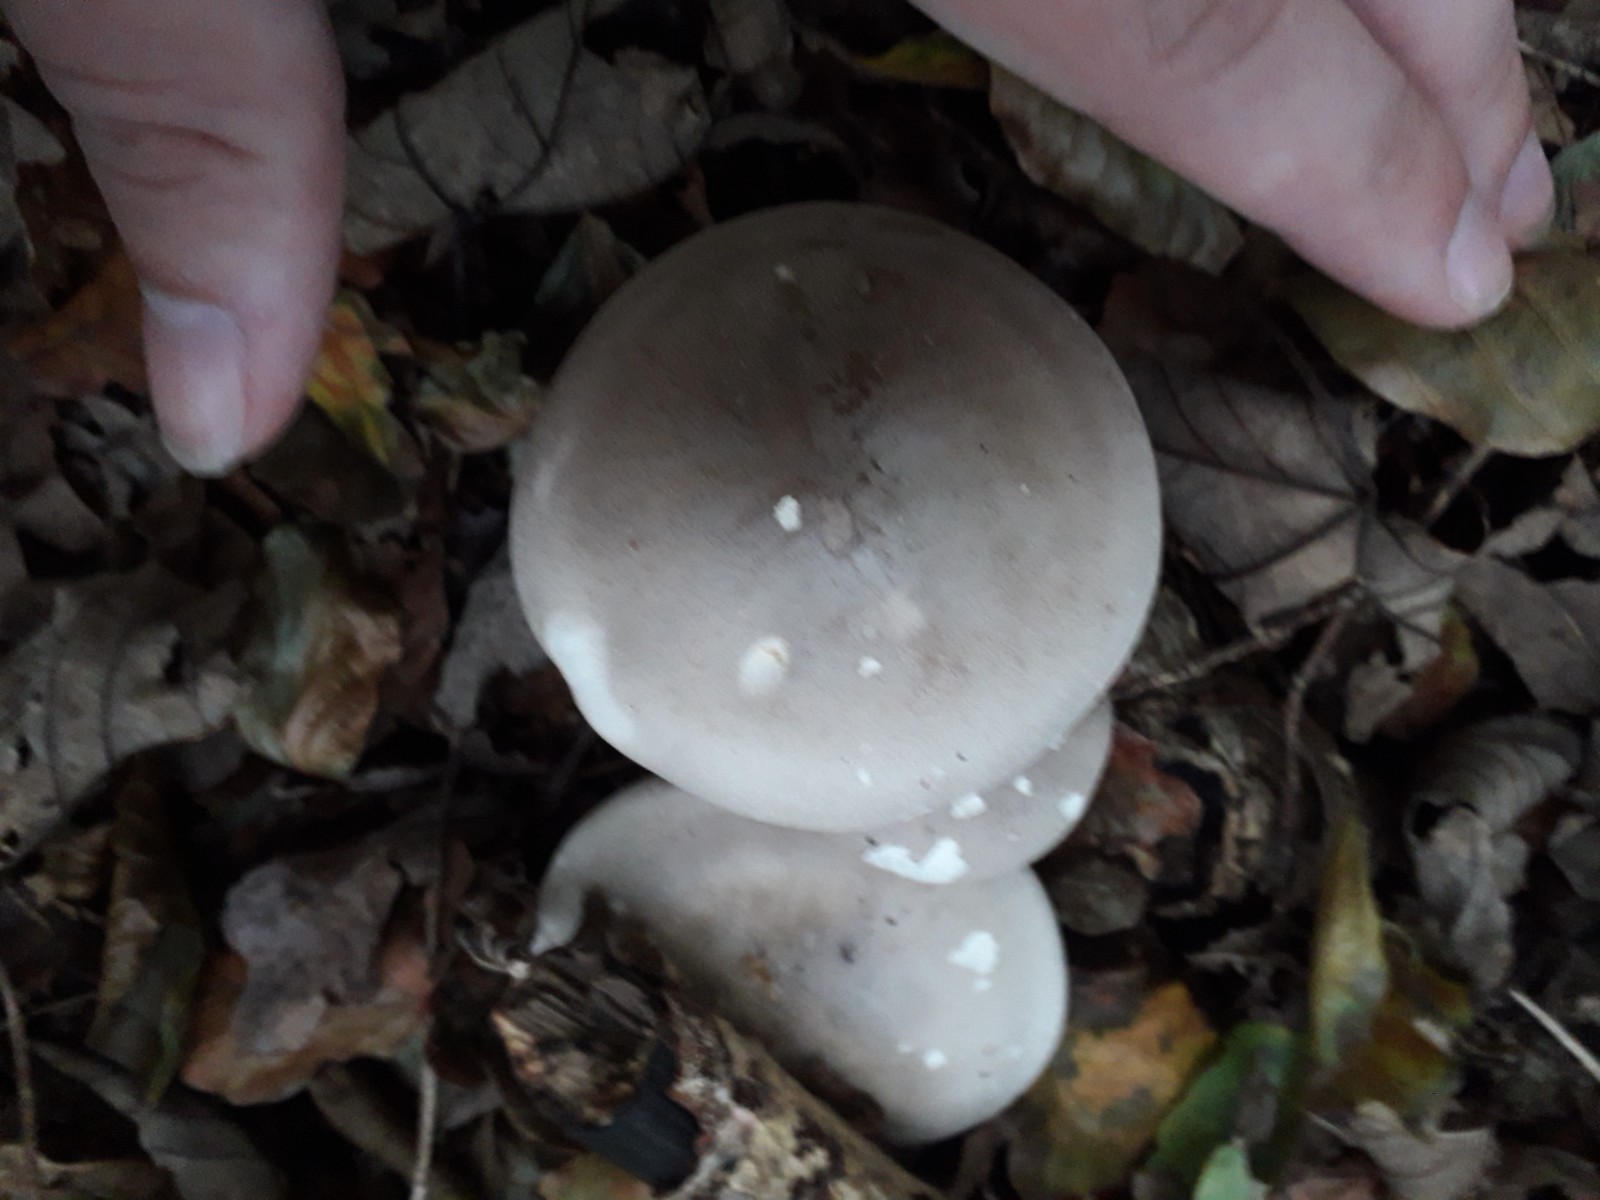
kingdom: Fungi
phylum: Basidiomycota
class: Agaricomycetes
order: Agaricales
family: Tricholomataceae
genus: Clitocybe
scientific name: Clitocybe nebularis
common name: tåge-tragthat
